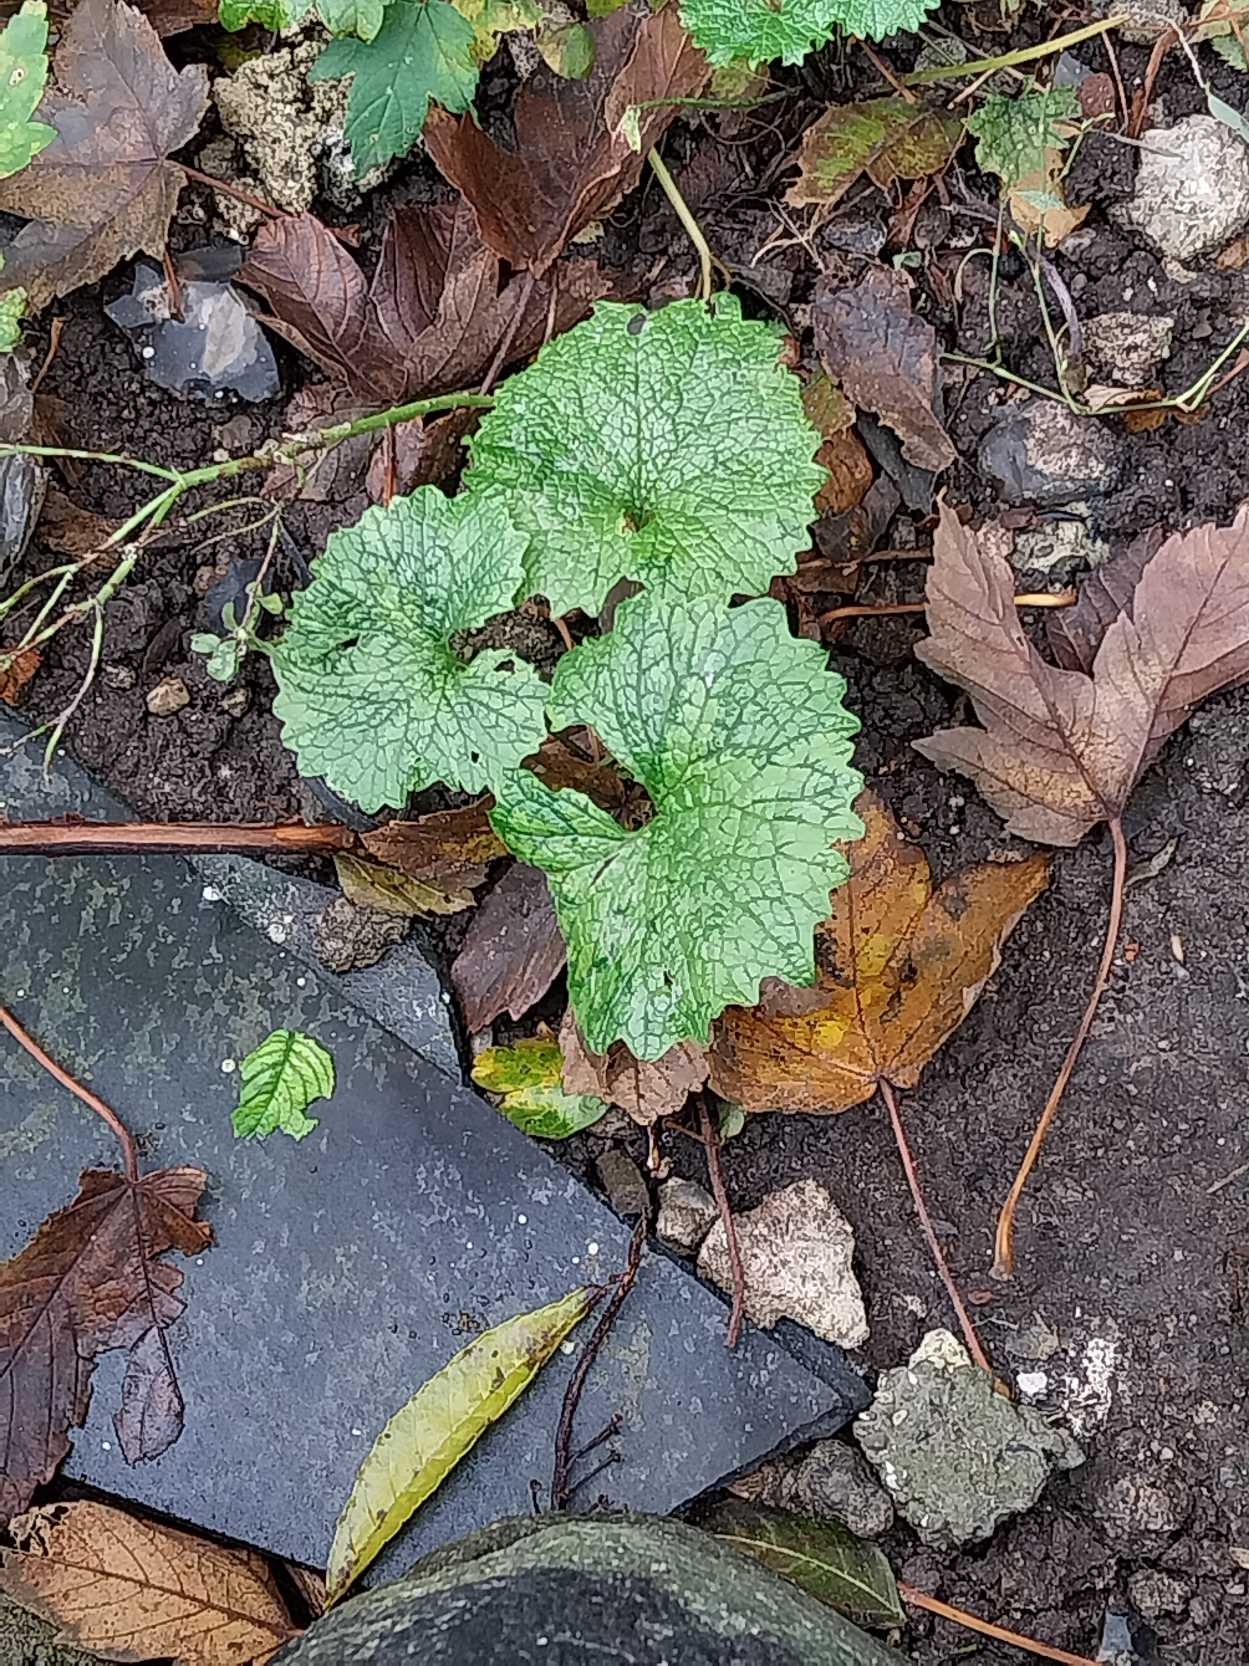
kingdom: Plantae
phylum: Tracheophyta
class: Magnoliopsida
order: Brassicales
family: Brassicaceae
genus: Alliaria
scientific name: Alliaria petiolata
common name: Løgkarse
